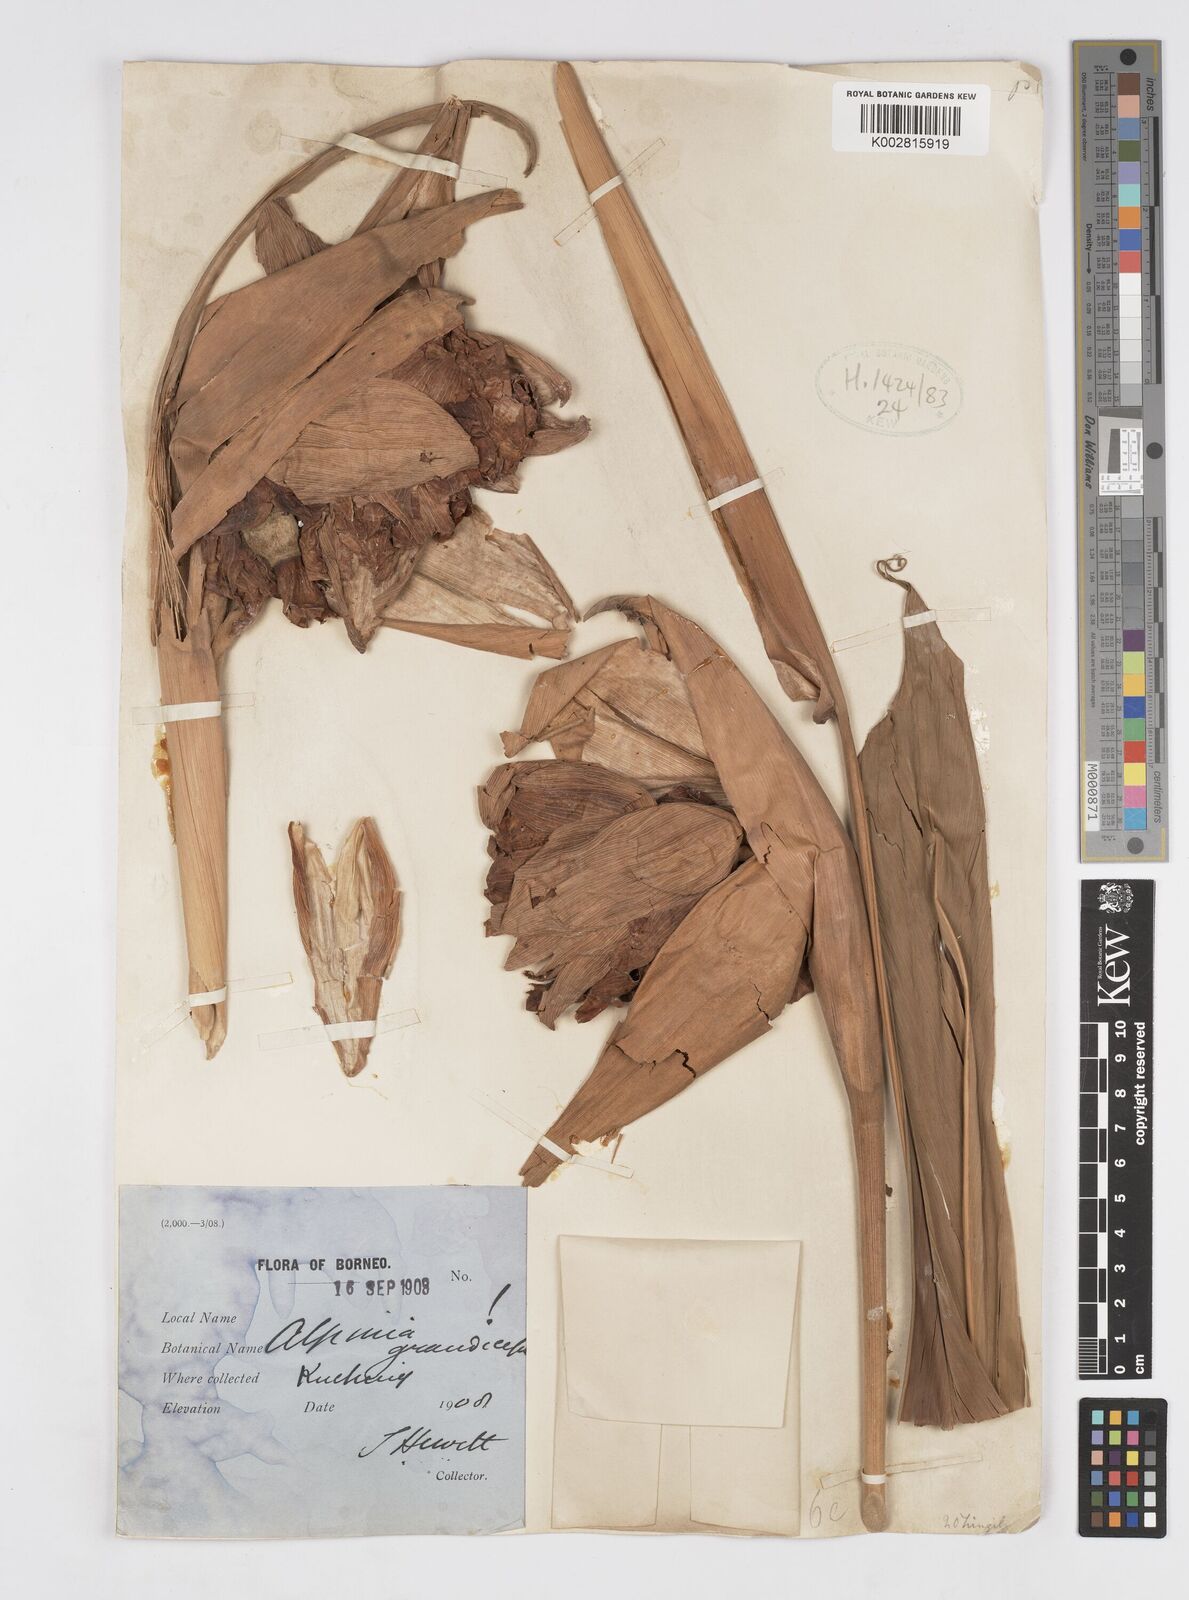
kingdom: Plantae
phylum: Tracheophyta
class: Liliopsida
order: Zingiberales
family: Zingiberaceae
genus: Alpinia
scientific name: Alpinia capitellata
